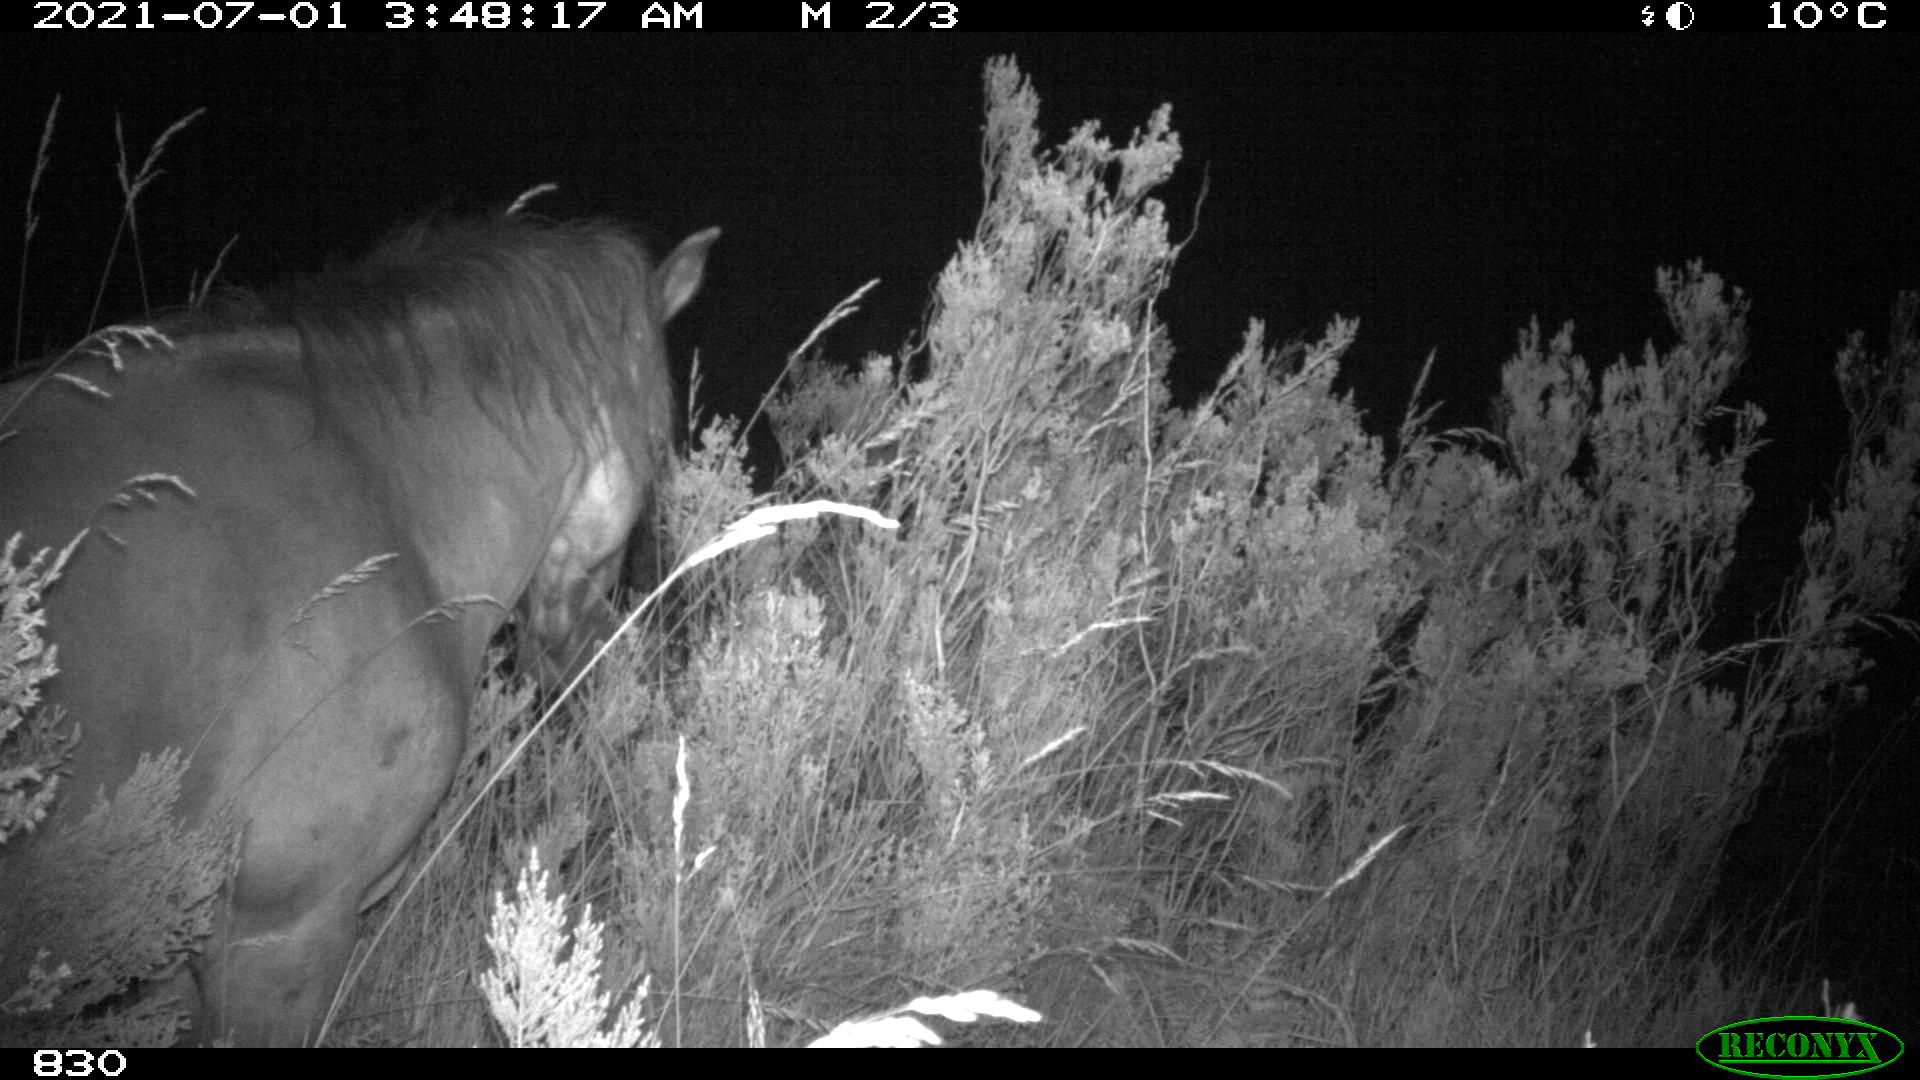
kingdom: Animalia
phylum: Chordata
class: Mammalia
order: Perissodactyla
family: Equidae
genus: Equus
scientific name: Equus caballus
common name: Horse
